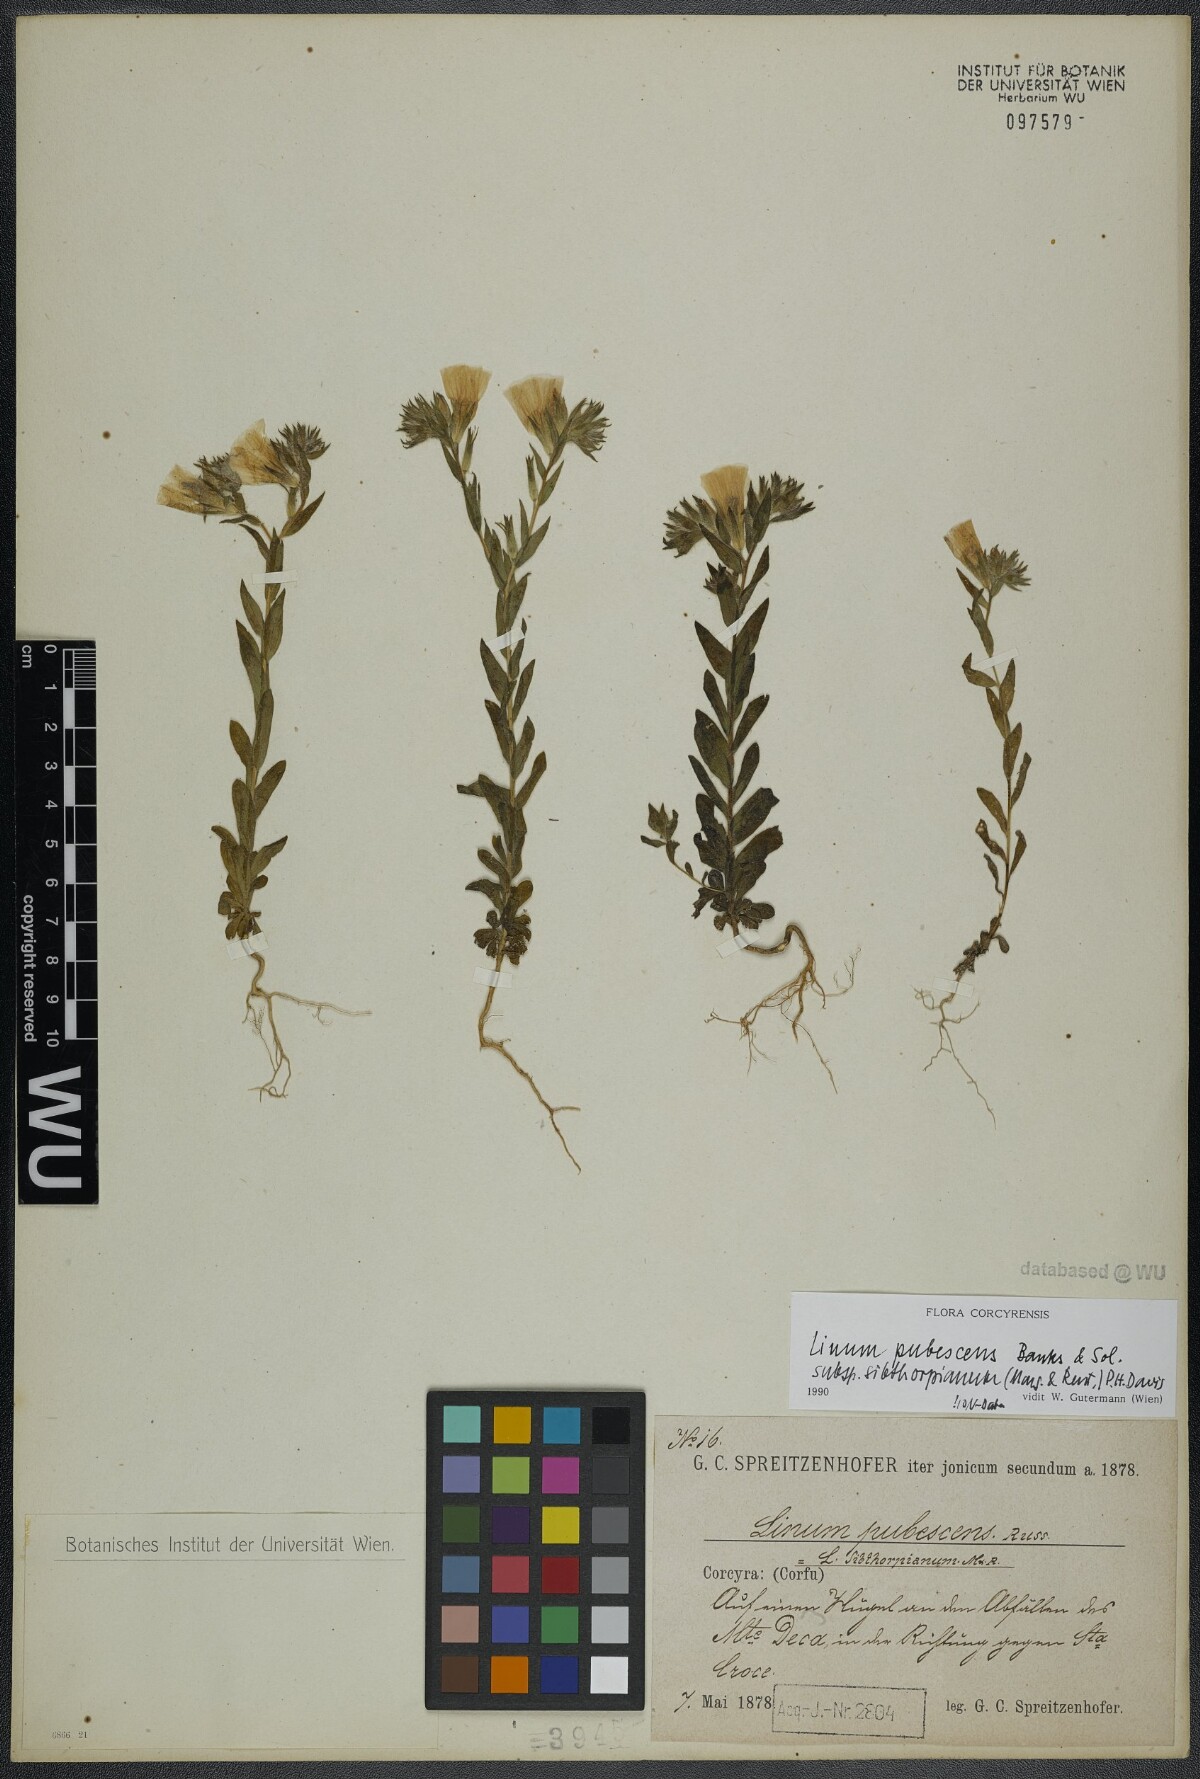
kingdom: Plantae
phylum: Tracheophyta
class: Magnoliopsida
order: Malpighiales
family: Linaceae
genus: Linum
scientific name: Linum pubescens
